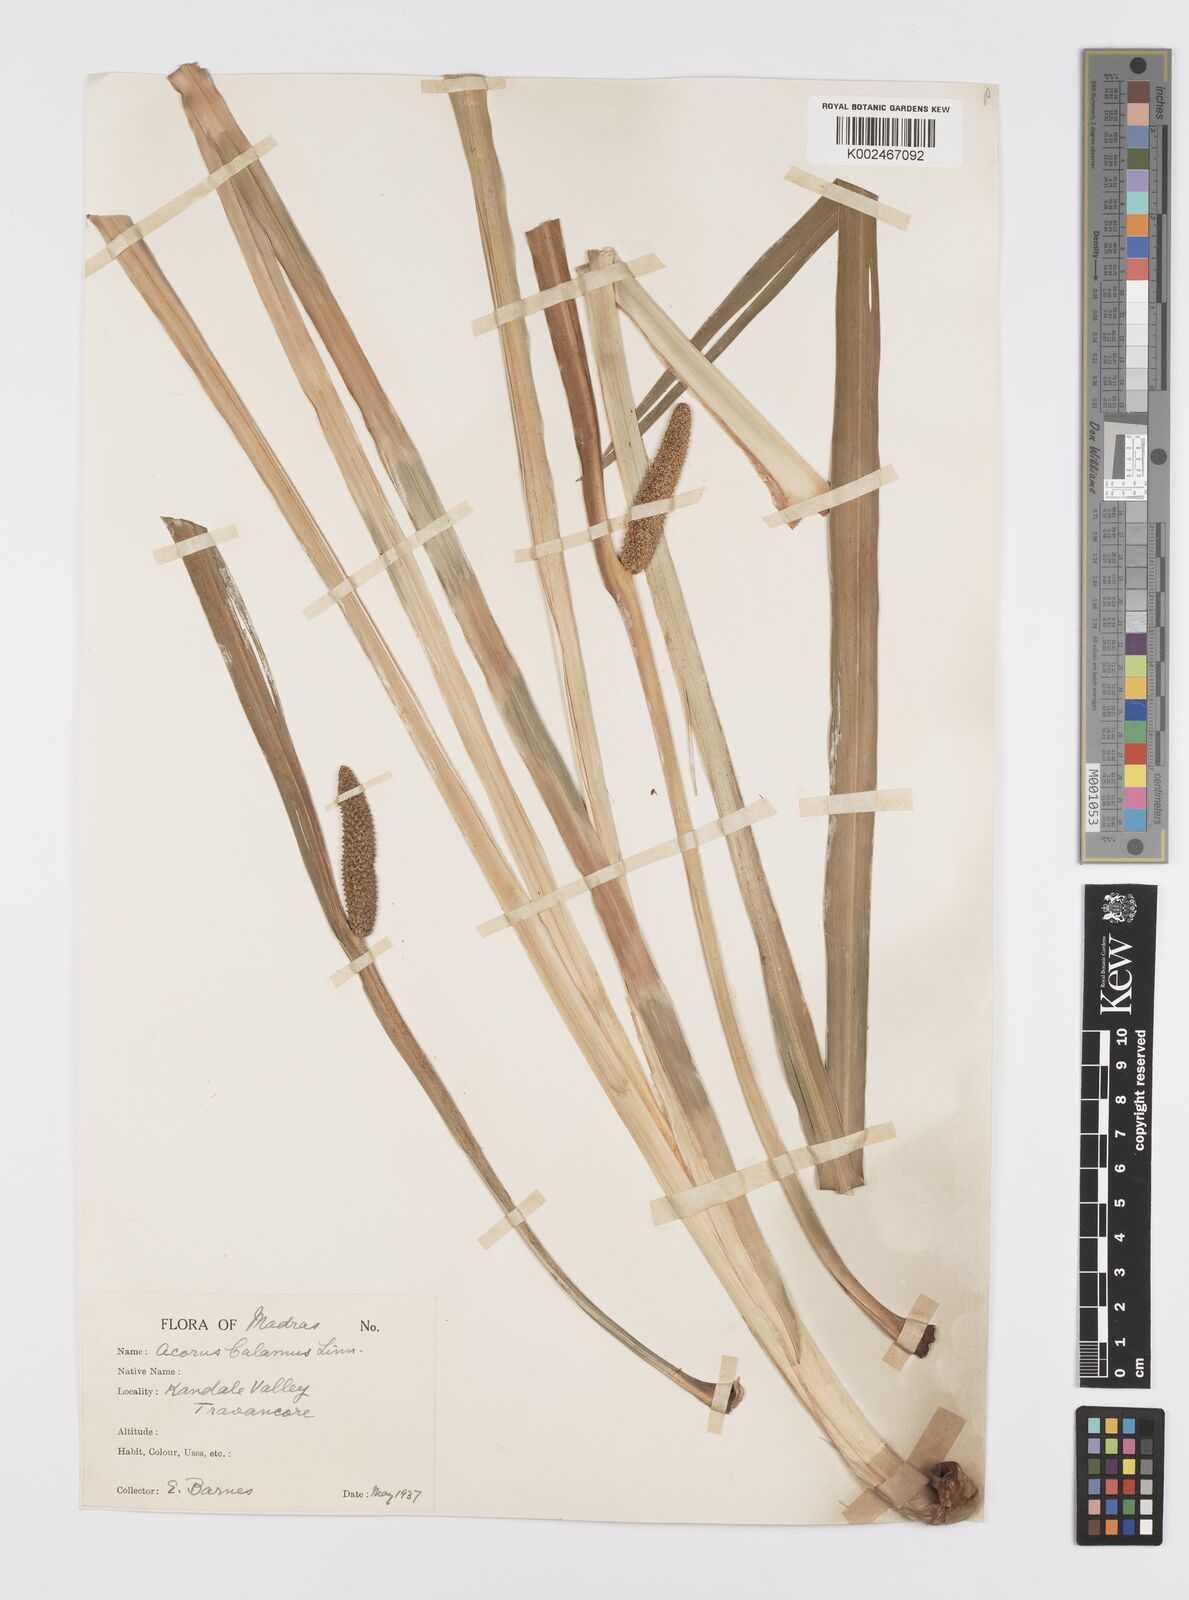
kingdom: Plantae
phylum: Tracheophyta
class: Liliopsida
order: Acorales
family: Acoraceae
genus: Acorus
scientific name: Acorus calamus
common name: Sweet-flag
